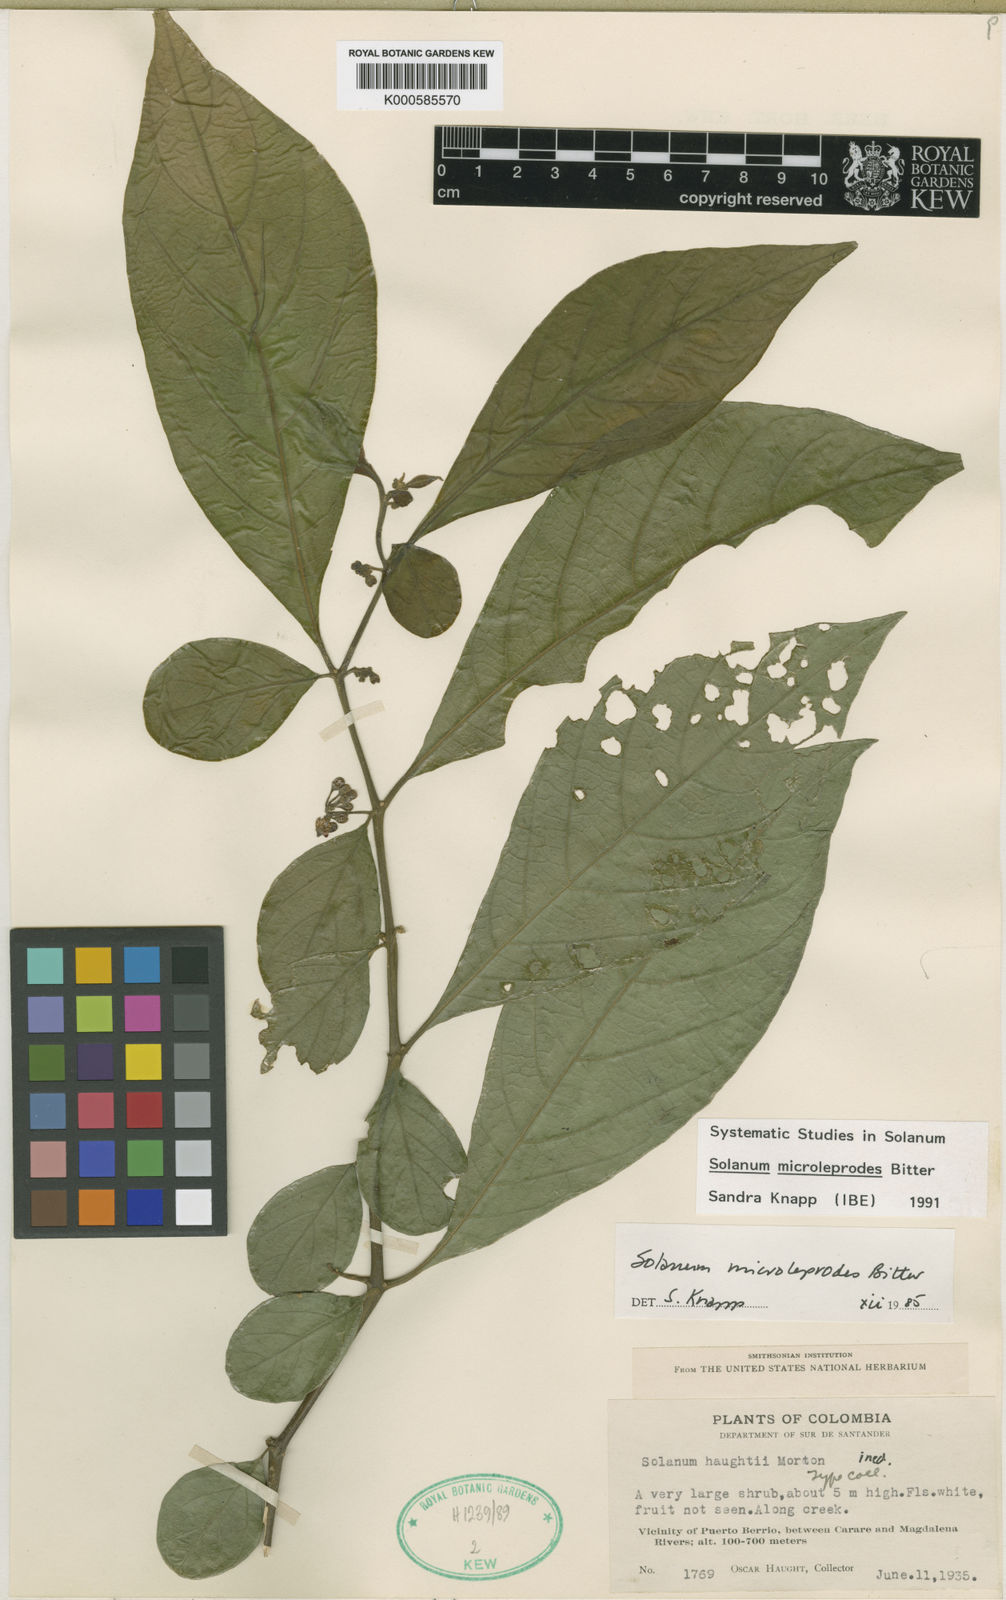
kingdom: Plantae
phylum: Tracheophyta
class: Magnoliopsida
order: Solanales
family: Solanaceae
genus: Solanum
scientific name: Solanum microleprodes
